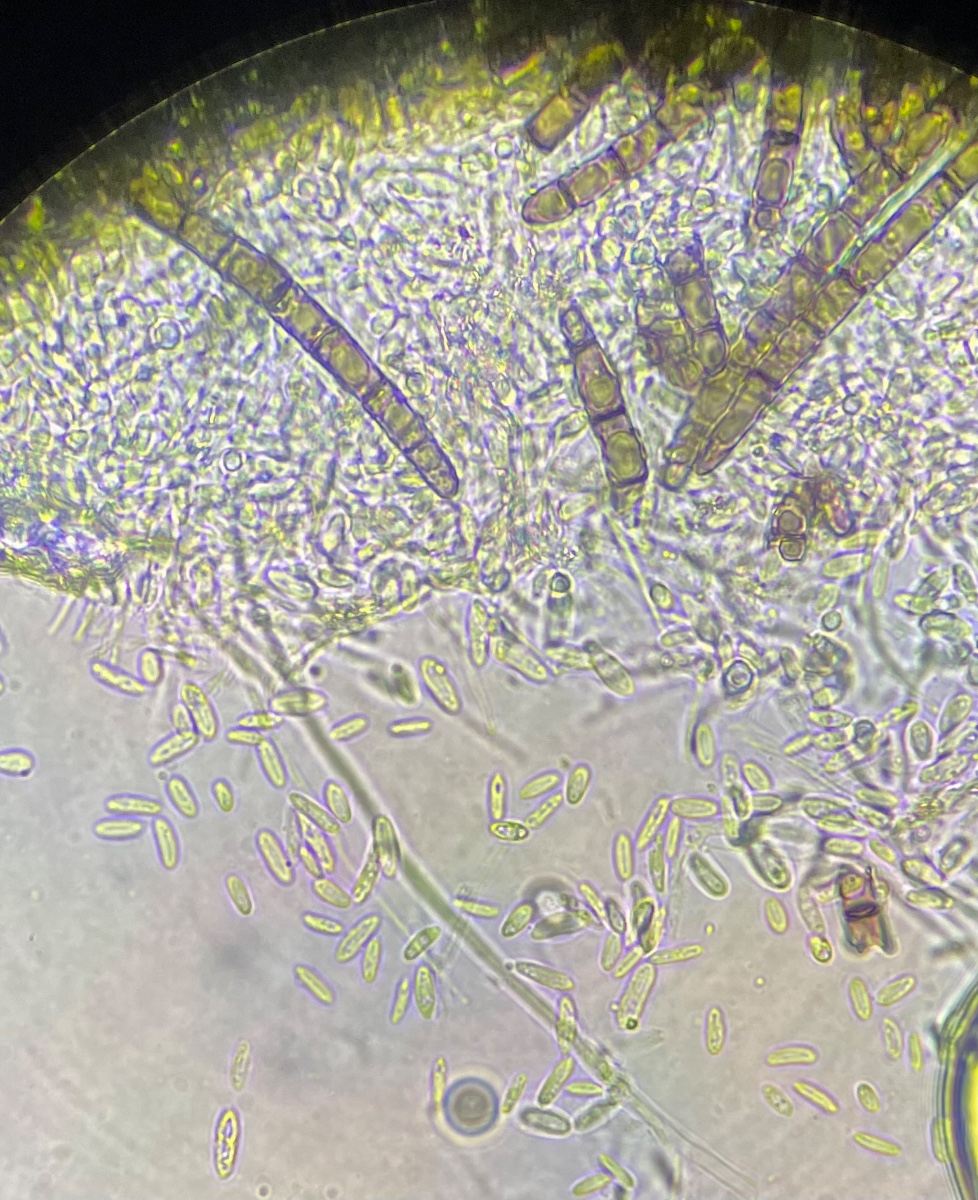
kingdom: Fungi
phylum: Ascomycota
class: Sordariomycetes
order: Hypocreales
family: Hypocreaceae
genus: Hypomyces
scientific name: Hypomyces papulasporae
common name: jordtunge-snylteskorpe
